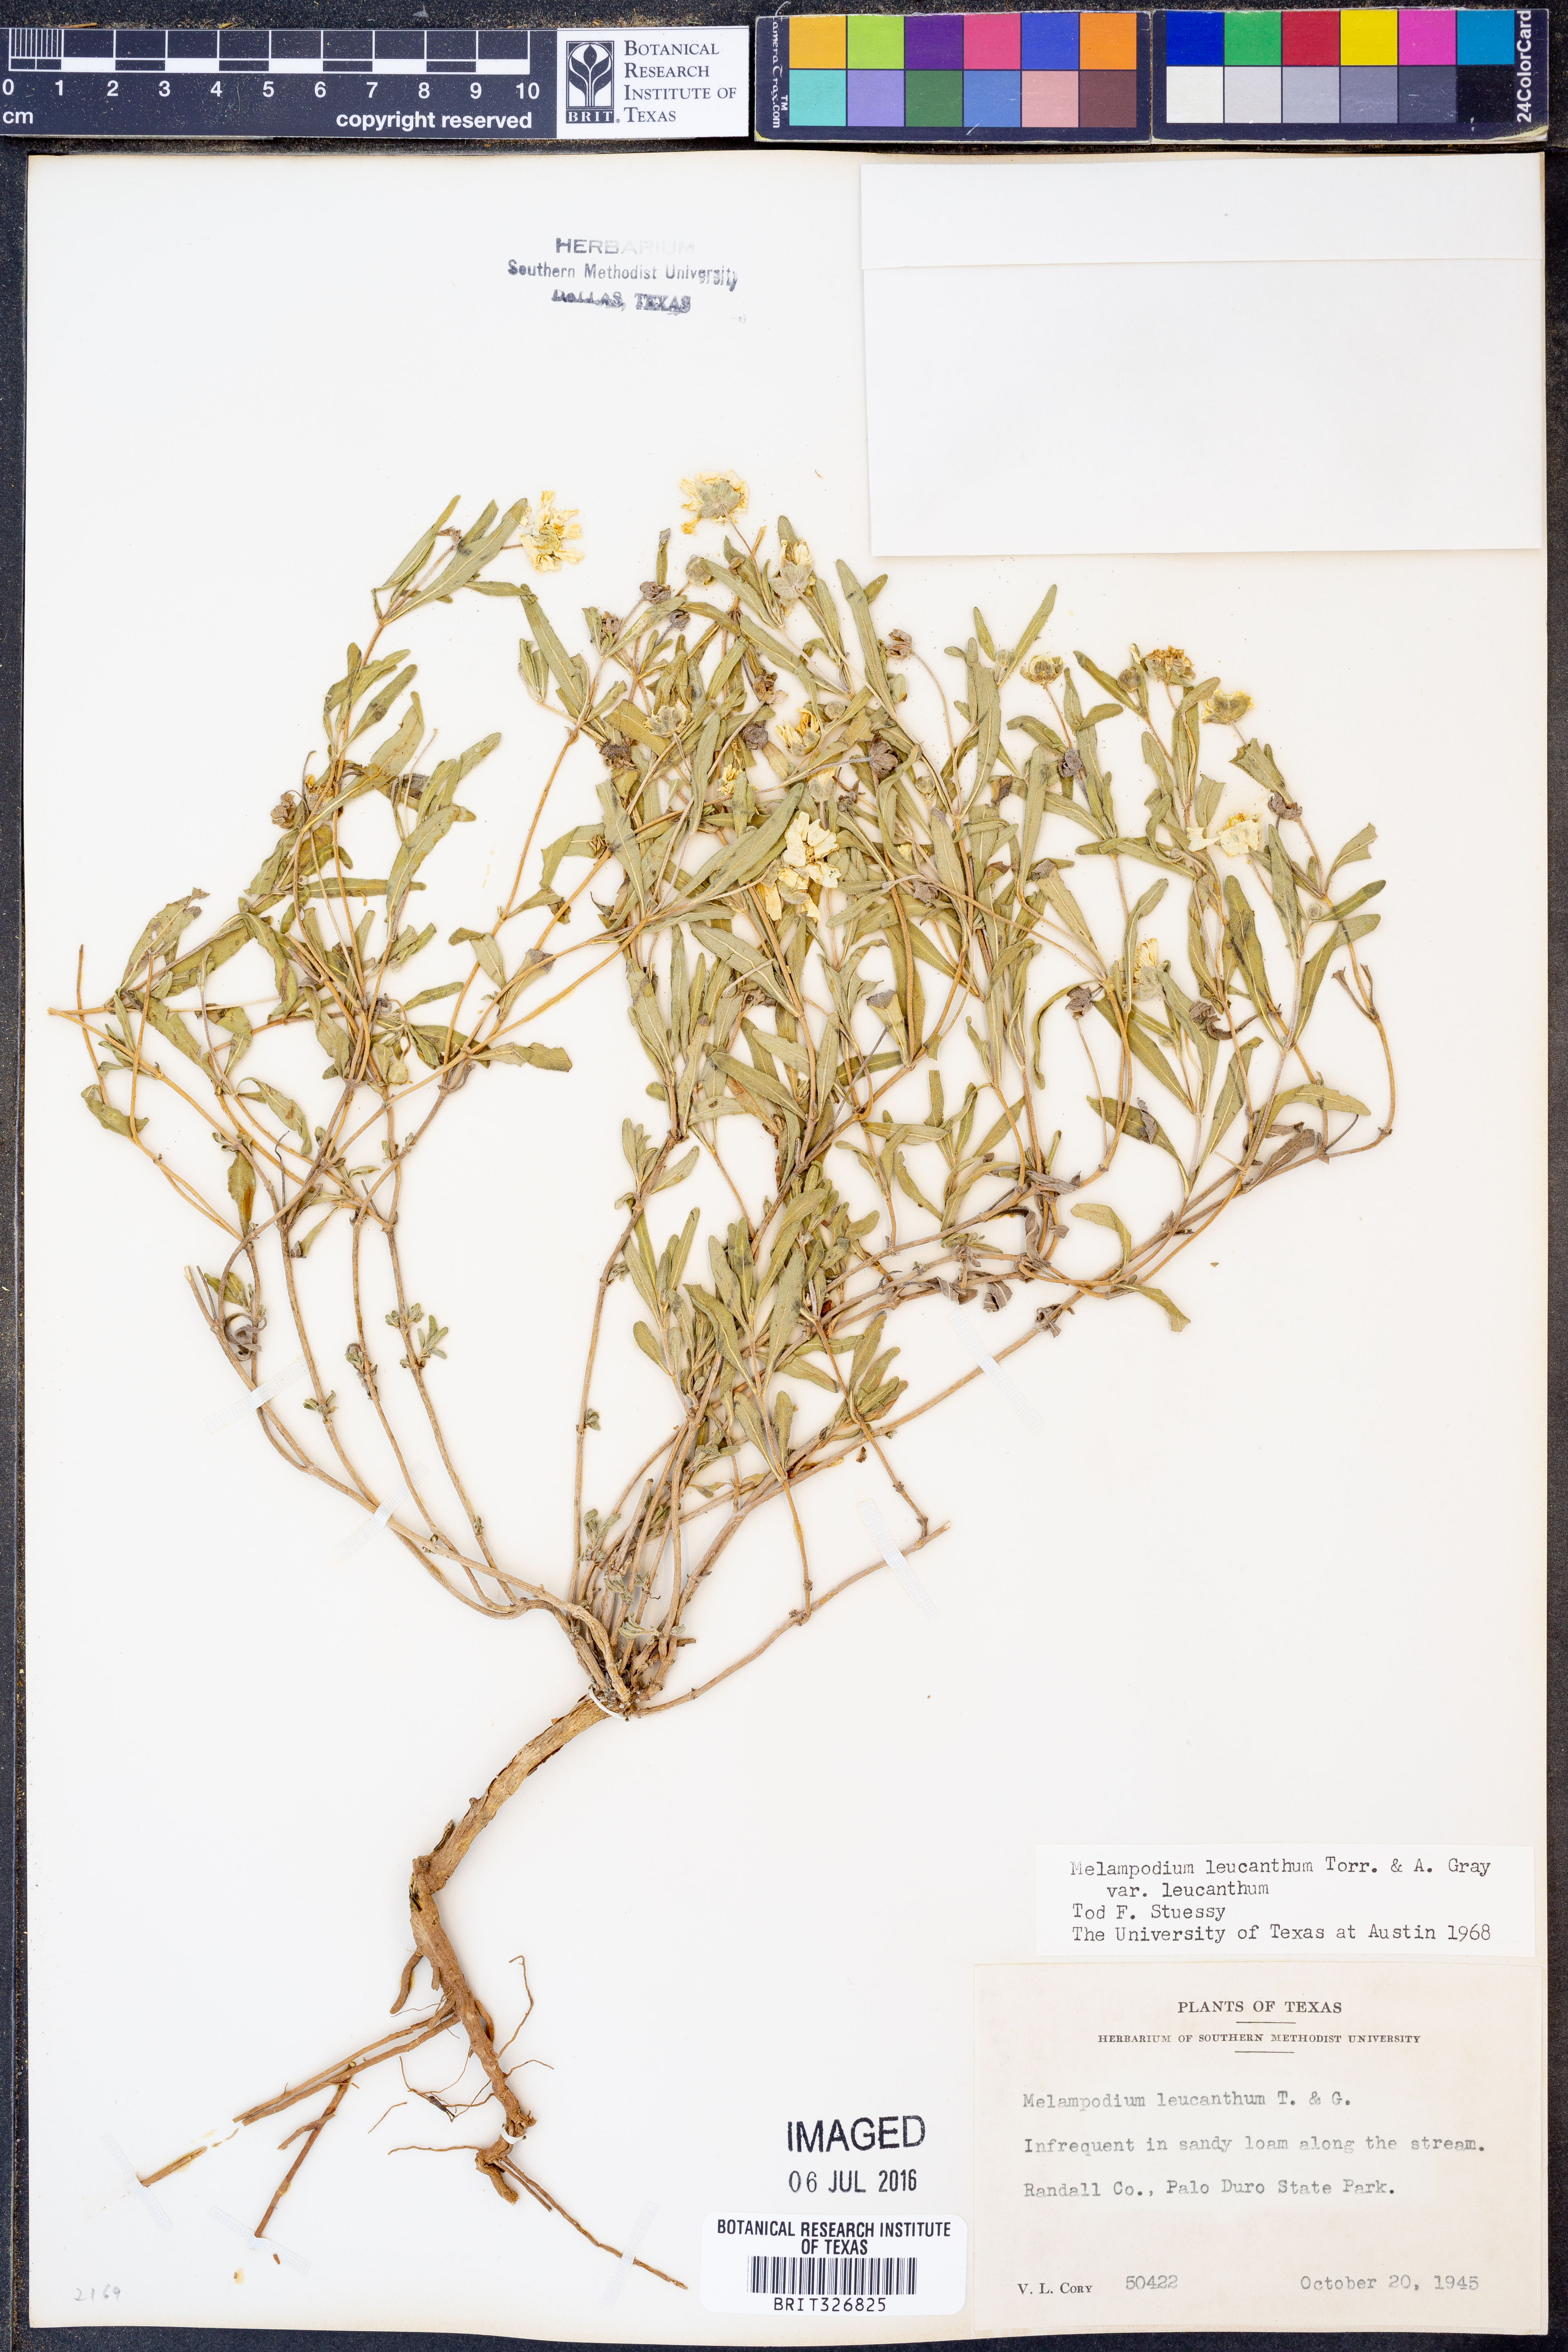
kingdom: Plantae
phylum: Tracheophyta
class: Magnoliopsida
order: Asterales
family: Asteraceae
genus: Melampodium
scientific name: Melampodium leucanthum
